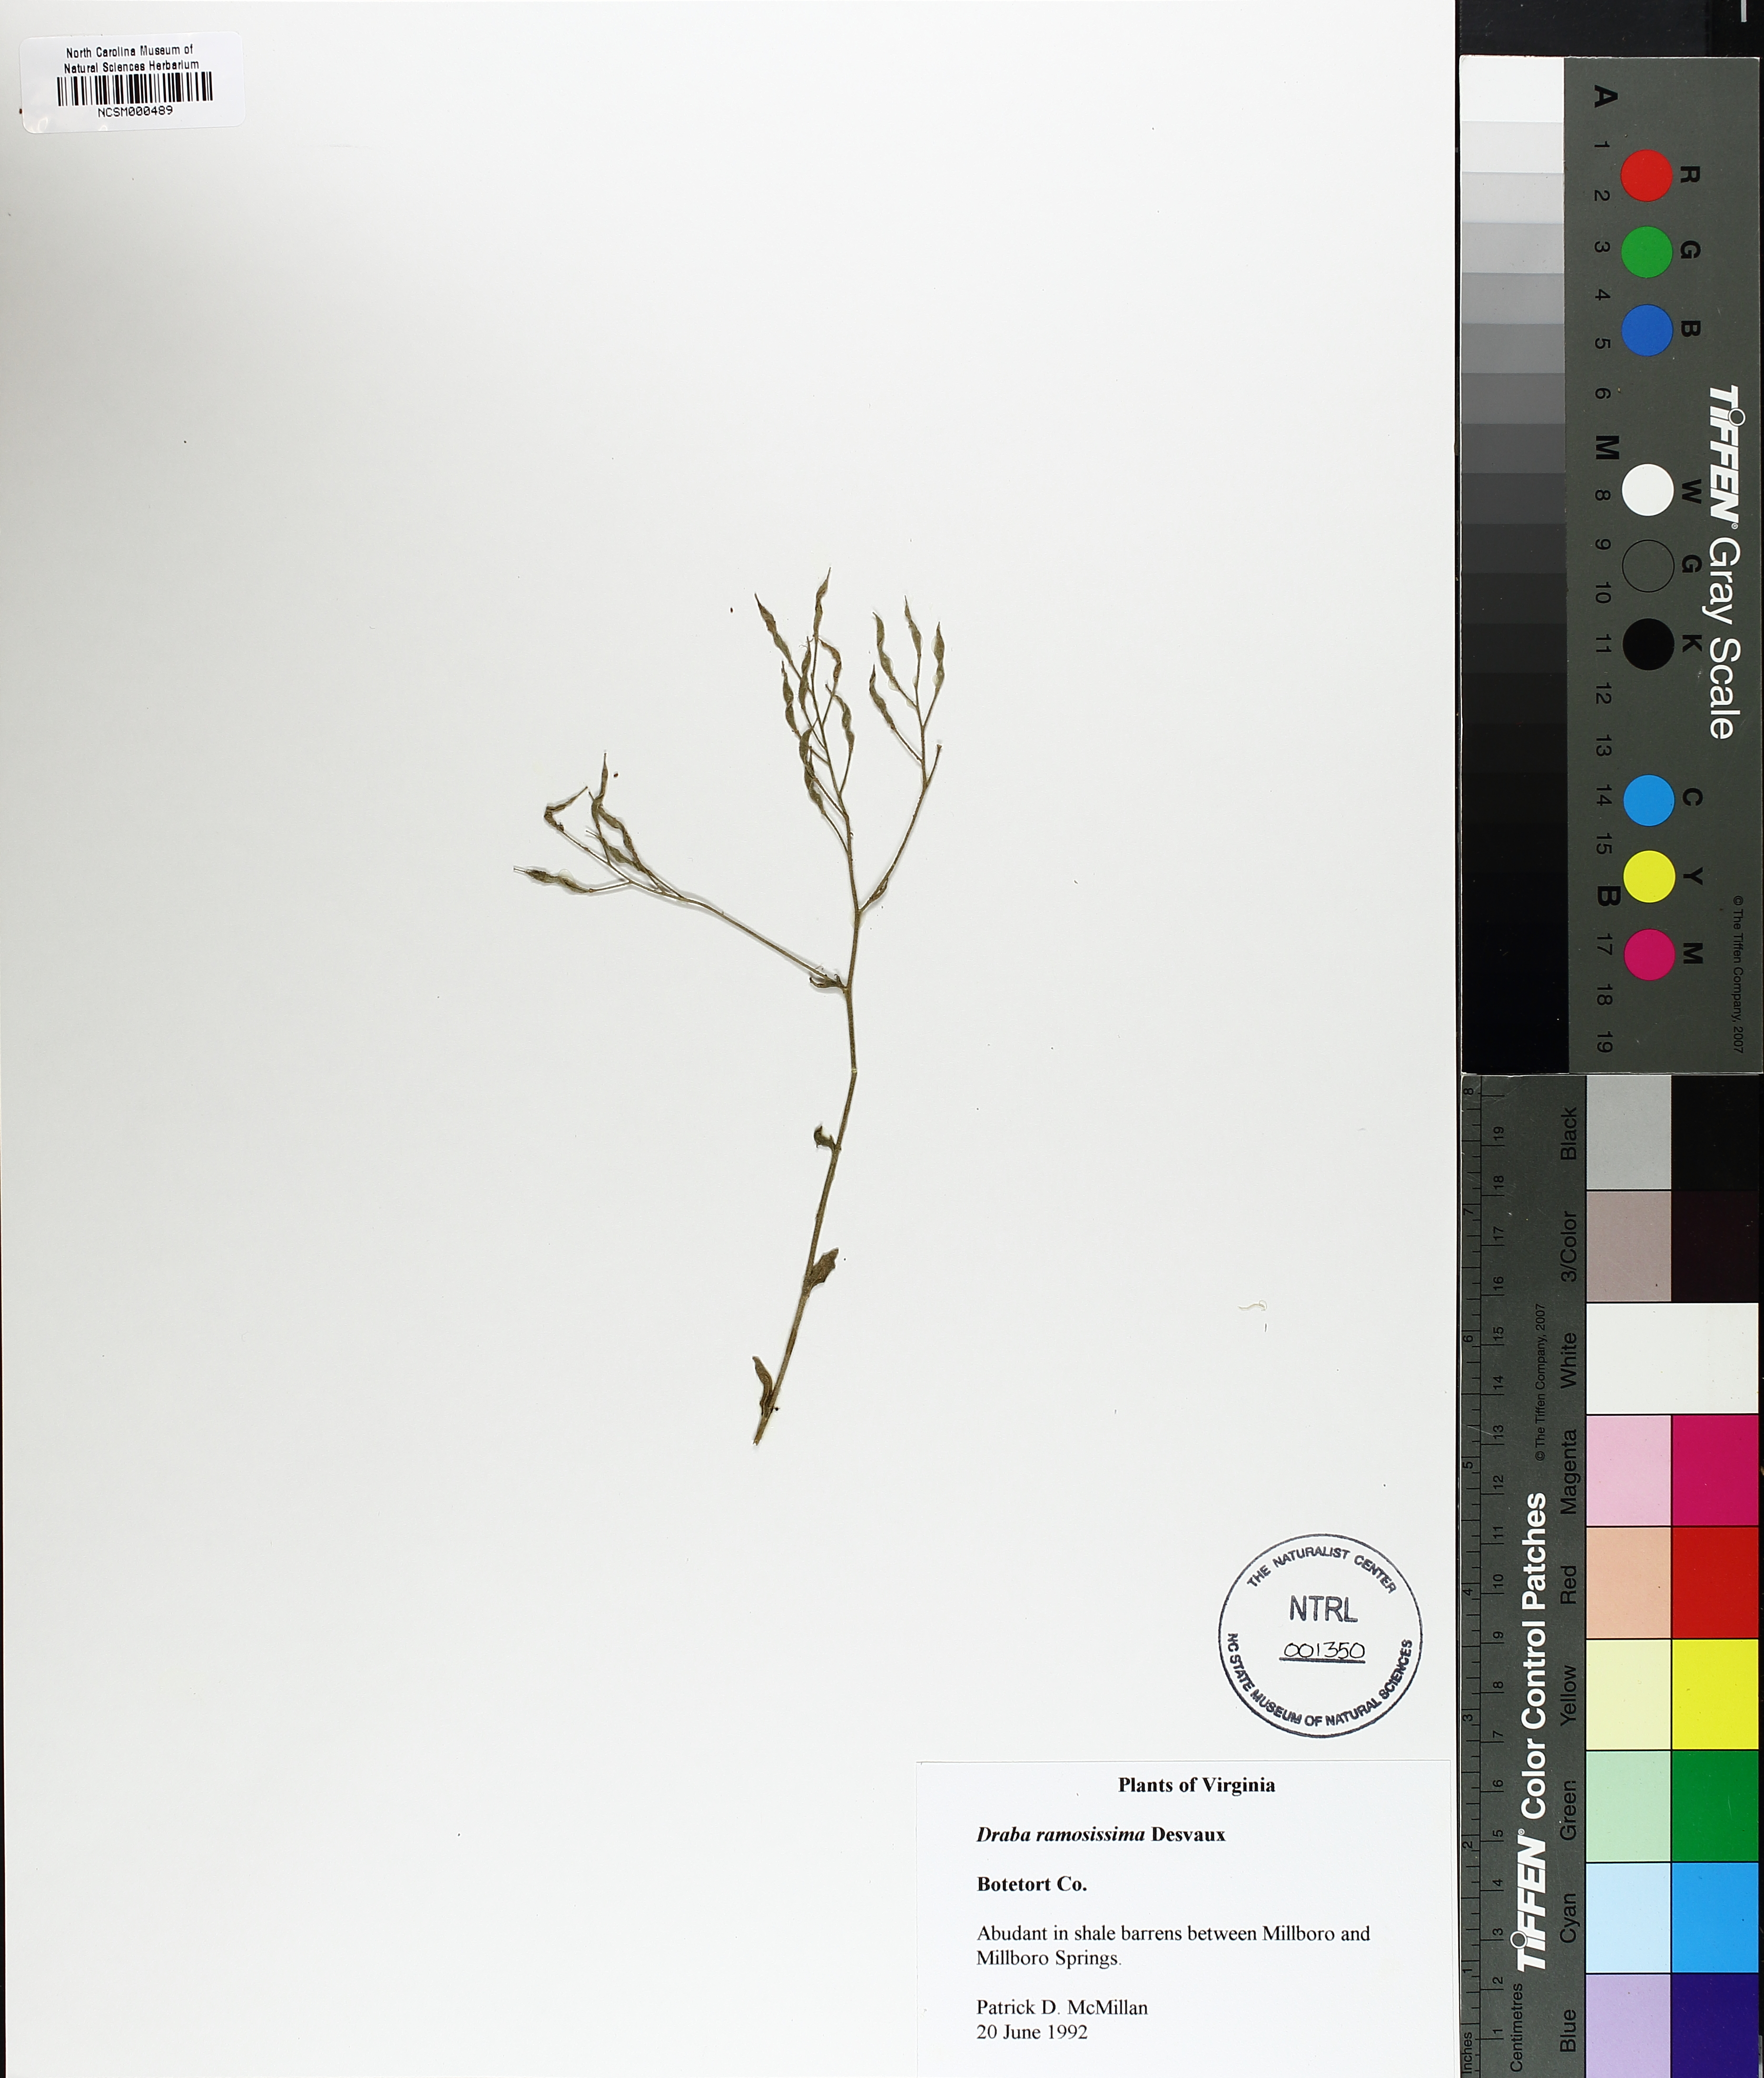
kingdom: Plantae
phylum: Tracheophyta
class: Magnoliopsida
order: Brassicales
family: Brassicaceae
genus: Draba
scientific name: Draba ramosissima
